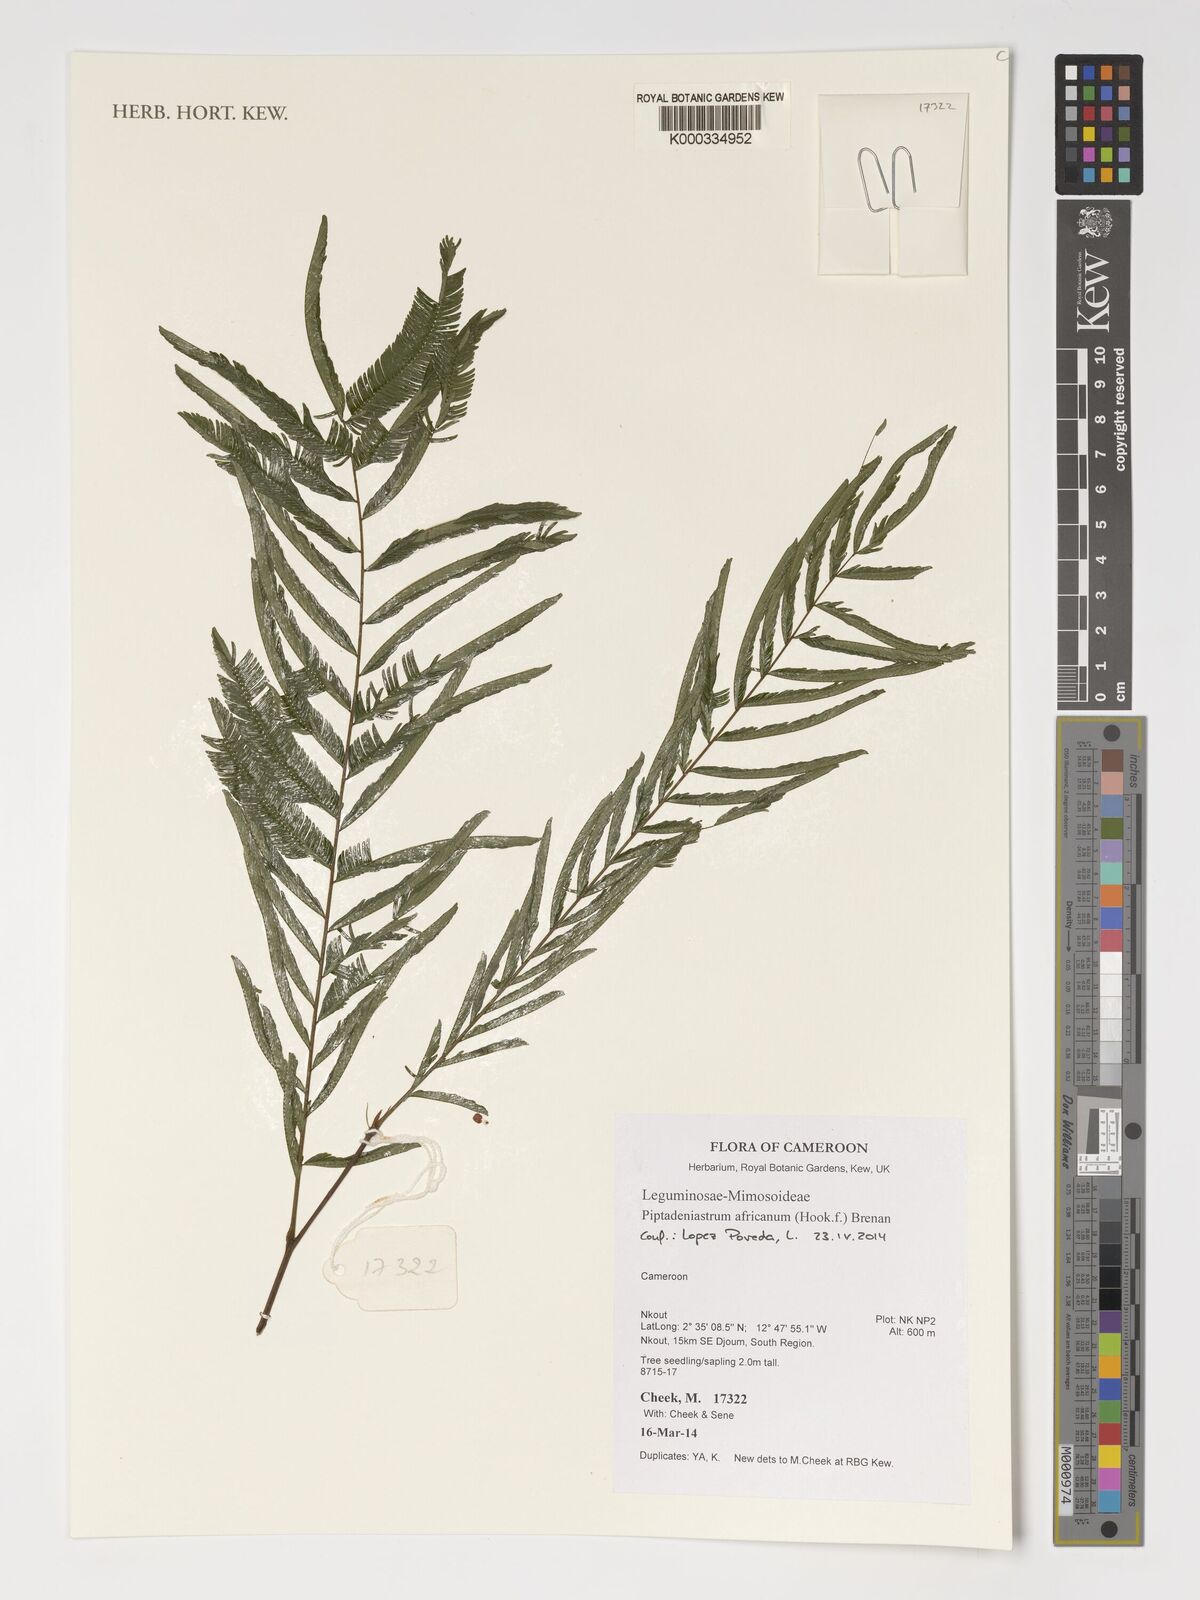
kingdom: Plantae
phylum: Tracheophyta
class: Magnoliopsida
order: Fabales
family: Fabaceae
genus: Piptadeniastrum
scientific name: Piptadeniastrum africanum
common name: African greenheart
